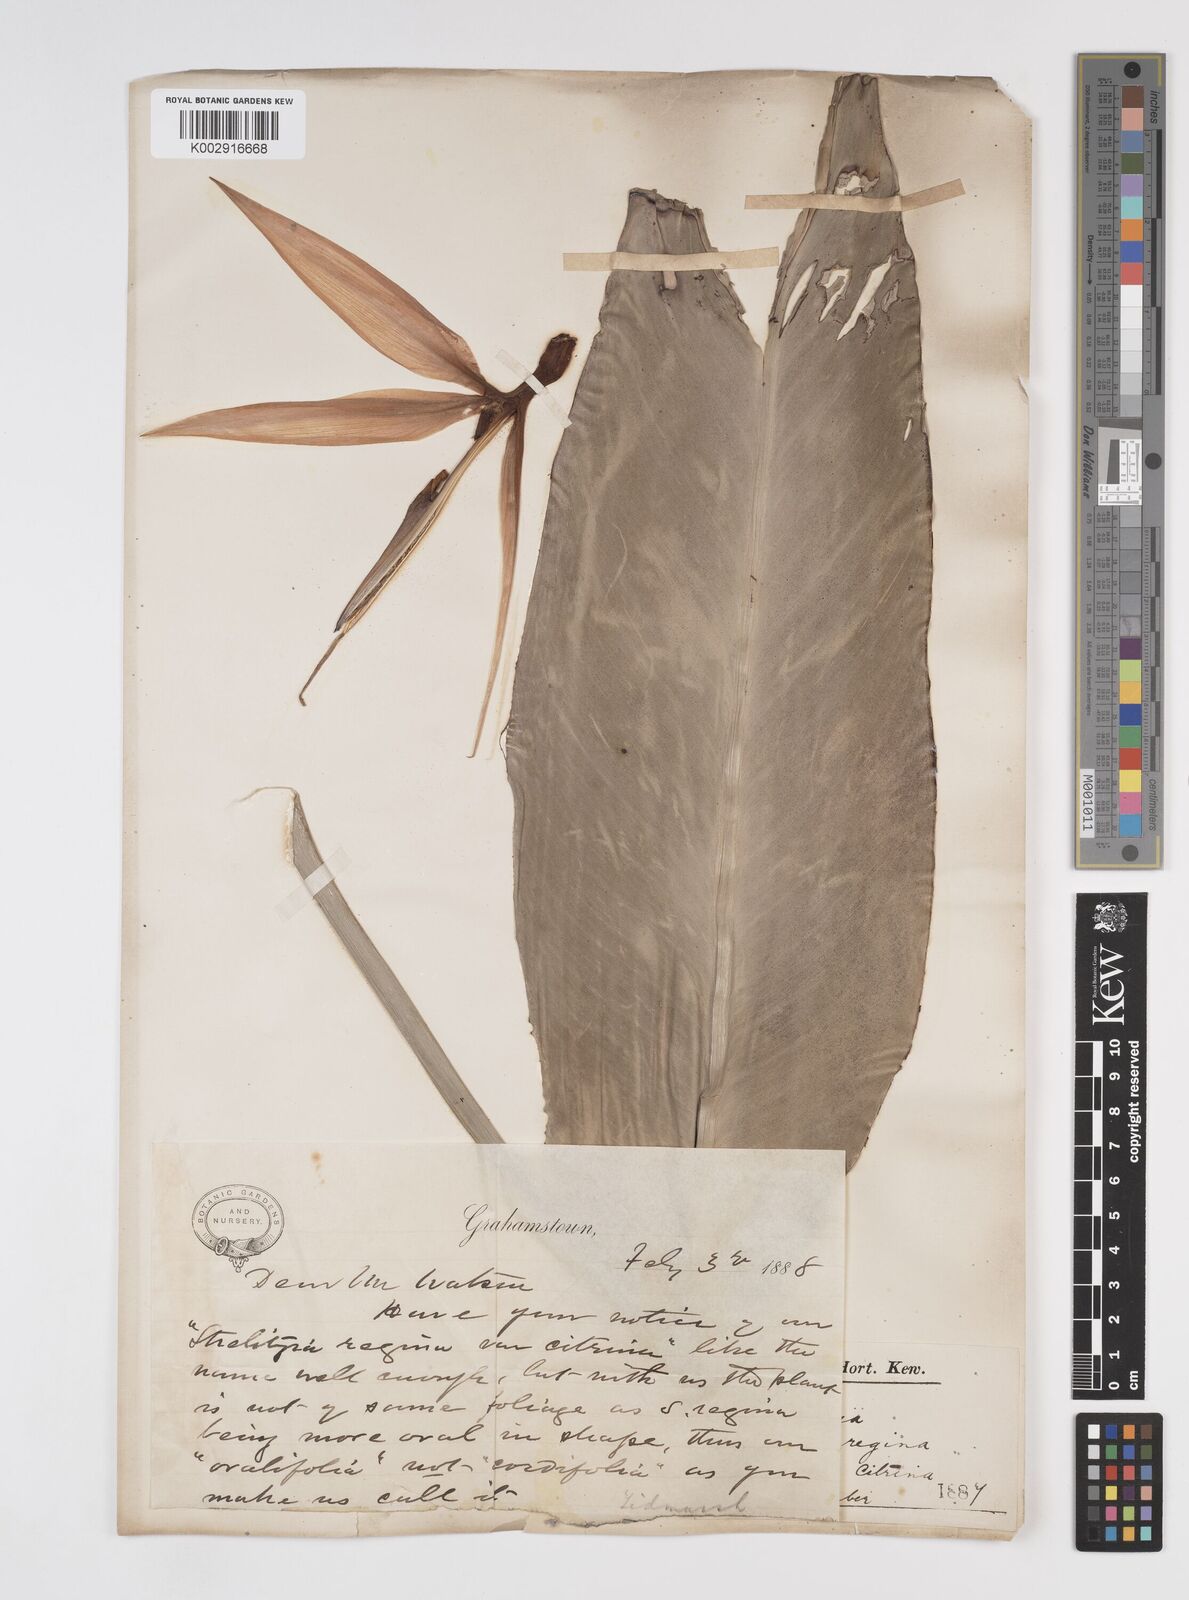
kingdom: Plantae
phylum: Tracheophyta
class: Liliopsida
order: Zingiberales
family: Strelitziaceae
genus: Strelitzia
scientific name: Strelitzia reginae
